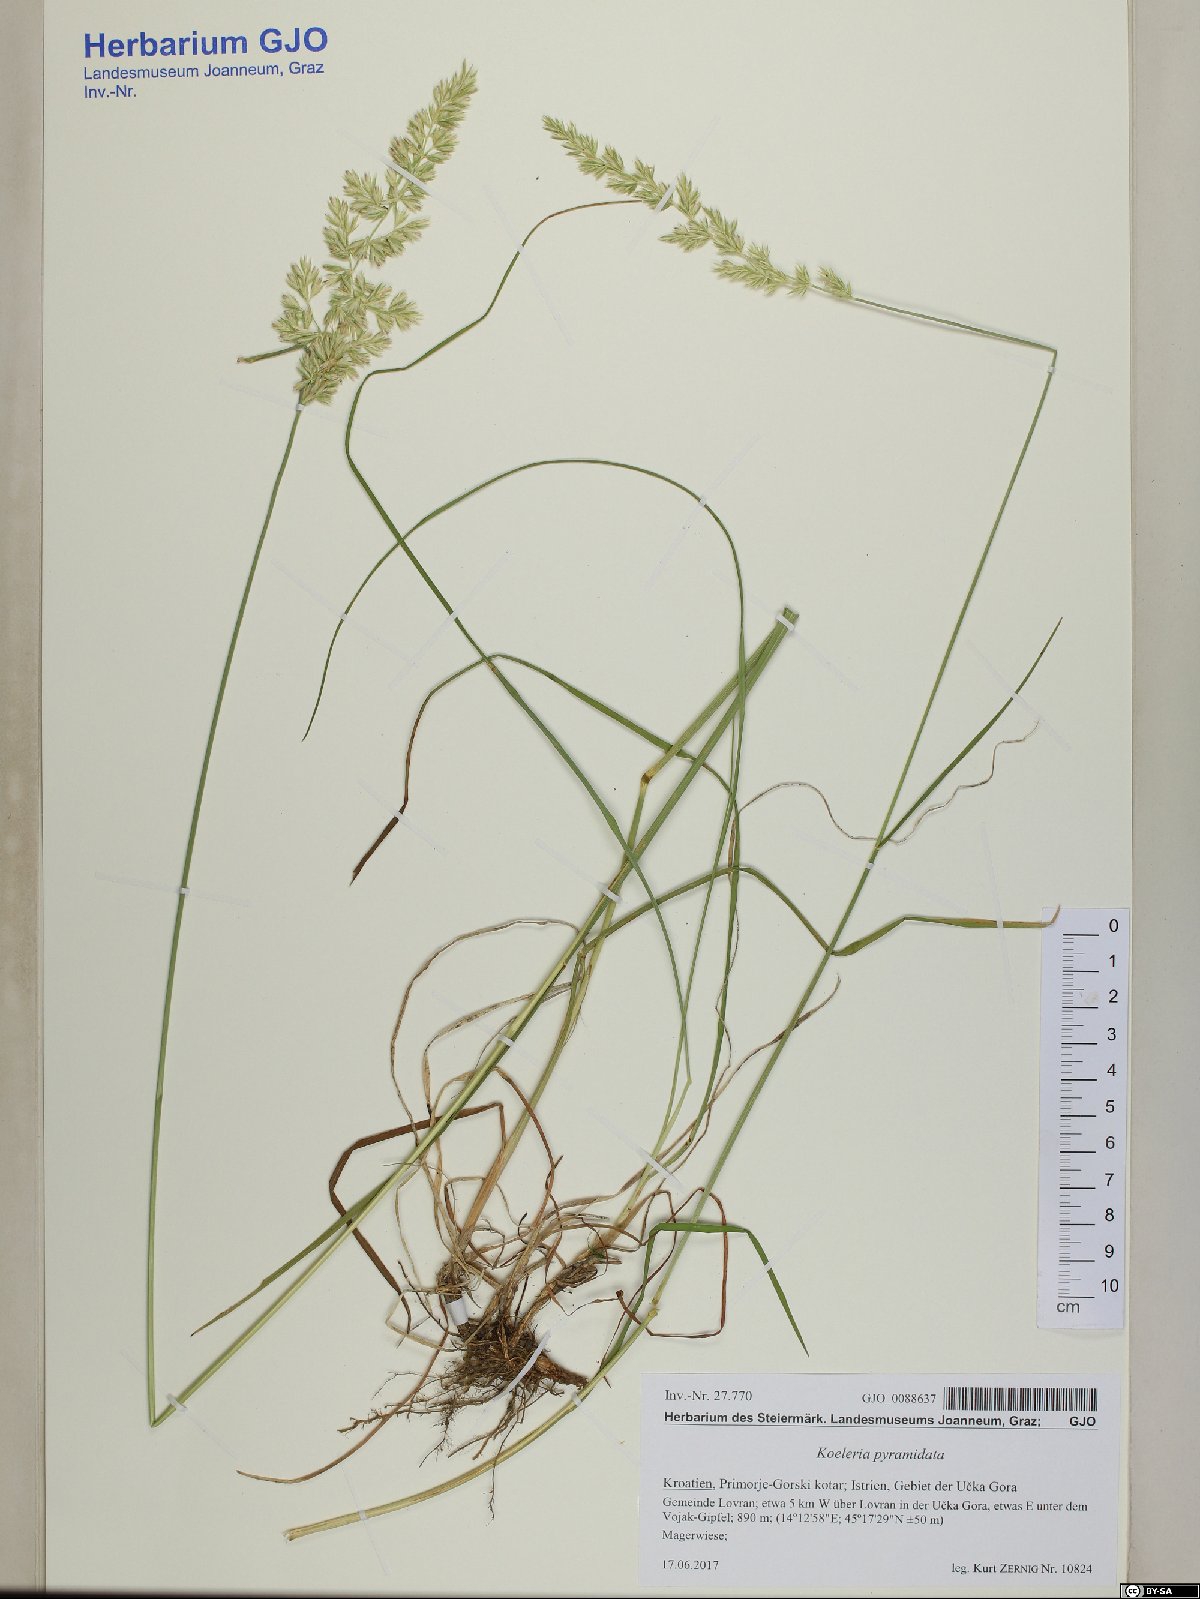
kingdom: Plantae
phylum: Tracheophyta
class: Liliopsida
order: Poales
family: Poaceae
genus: Koeleria
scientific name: Koeleria pyramidata
